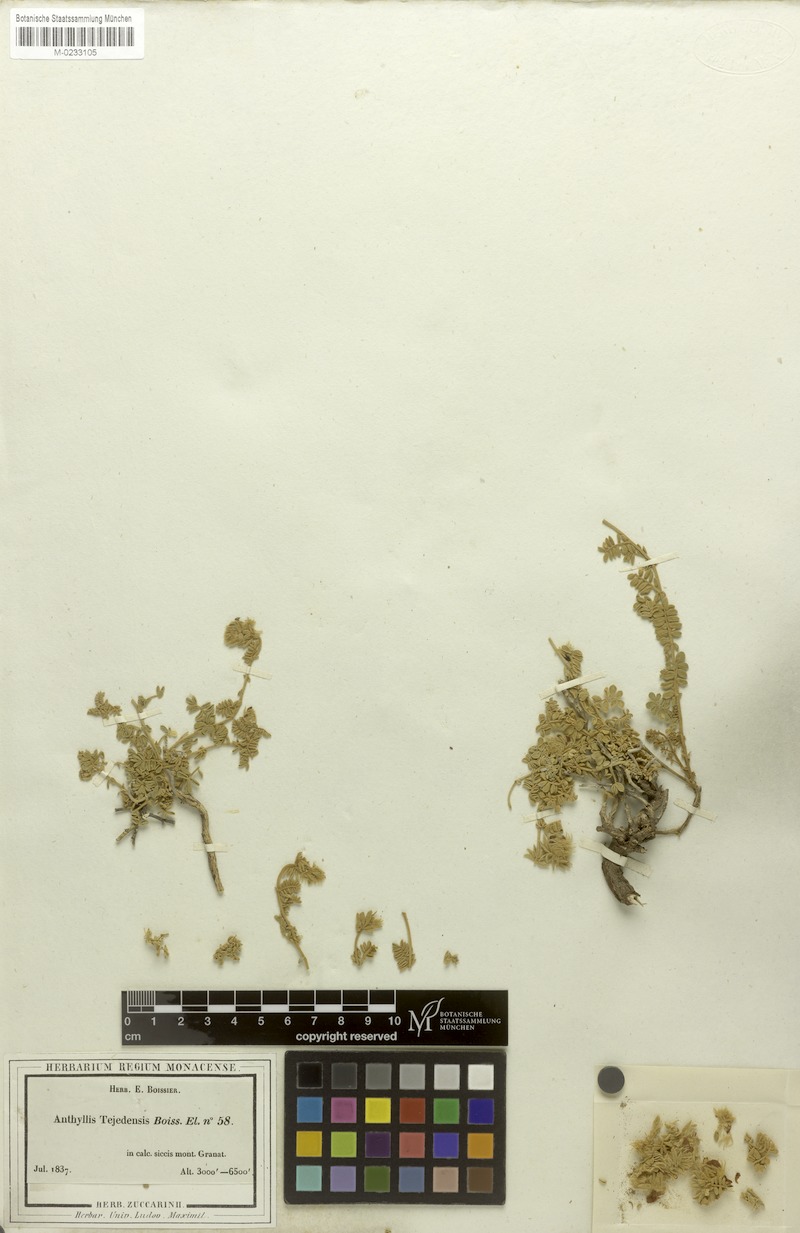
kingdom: Plantae
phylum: Tracheophyta
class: Magnoliopsida
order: Fabales
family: Fabaceae
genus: Anthyllis
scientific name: Anthyllis tejedensis
